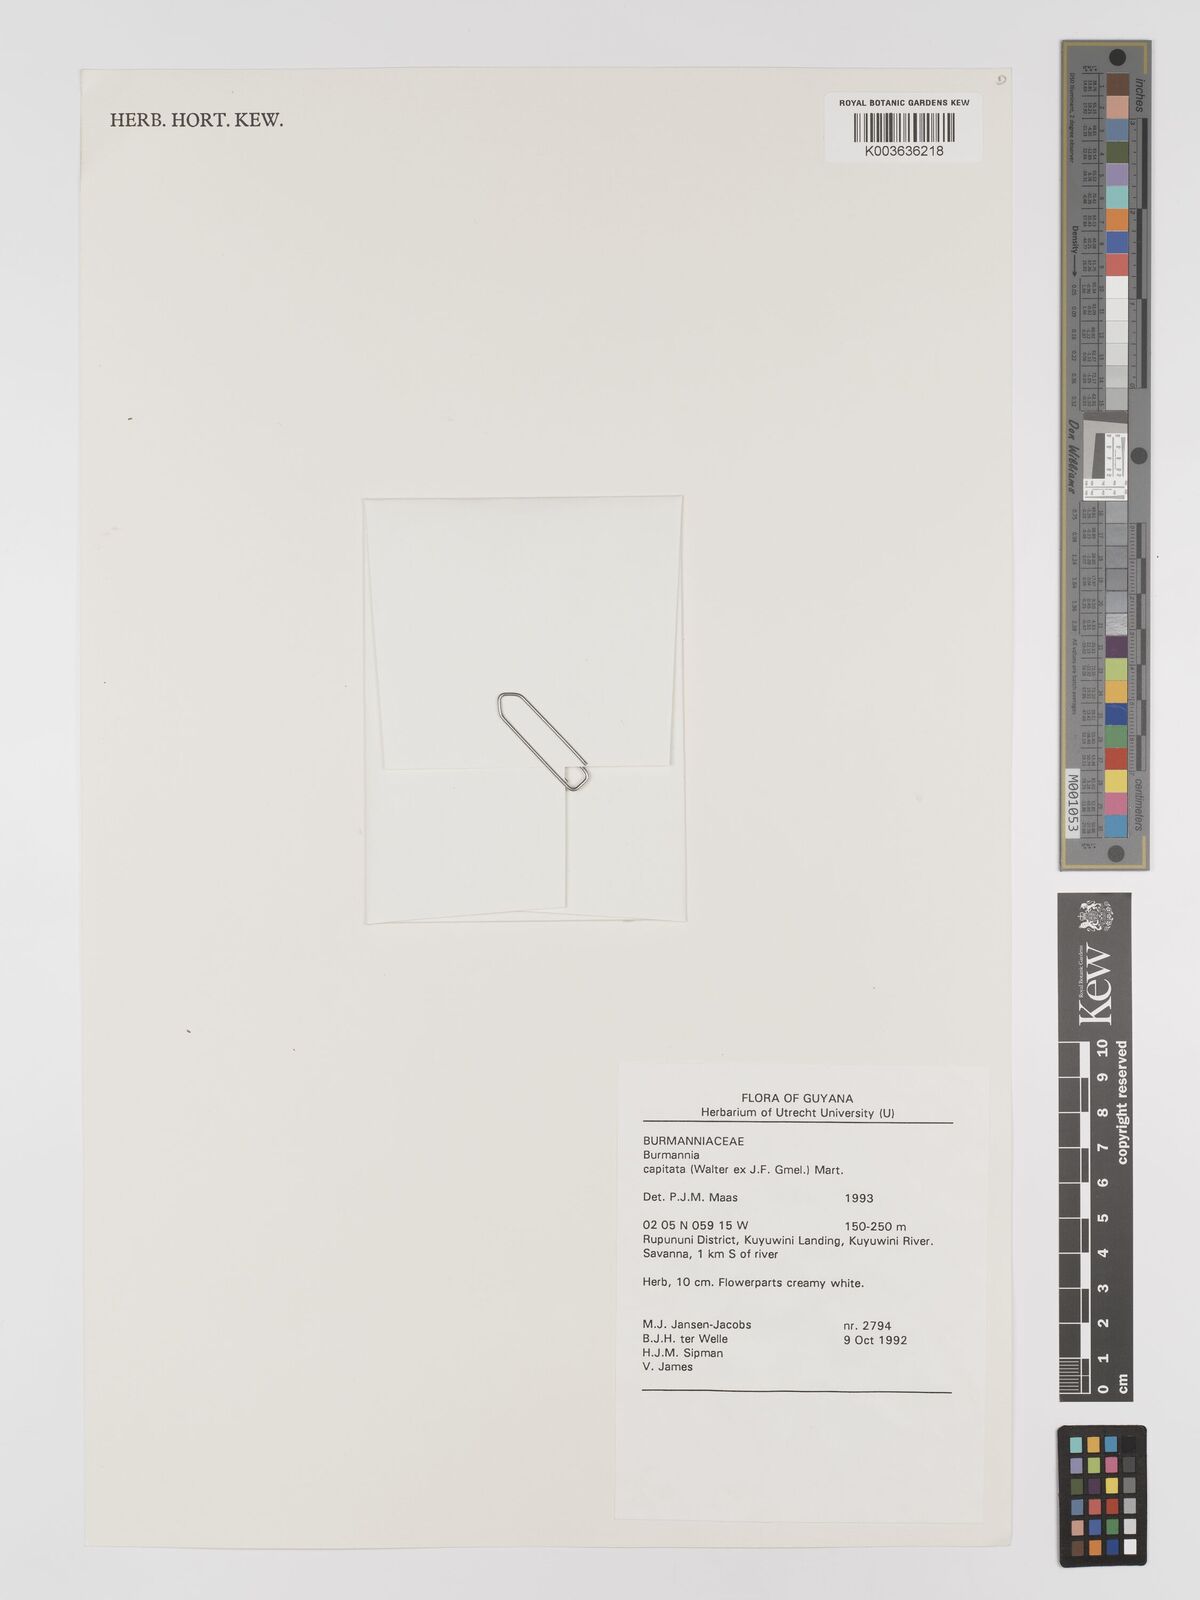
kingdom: Plantae
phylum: Tracheophyta
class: Liliopsida
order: Dioscoreales
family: Burmanniaceae
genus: Burmannia
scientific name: Burmannia capitata
